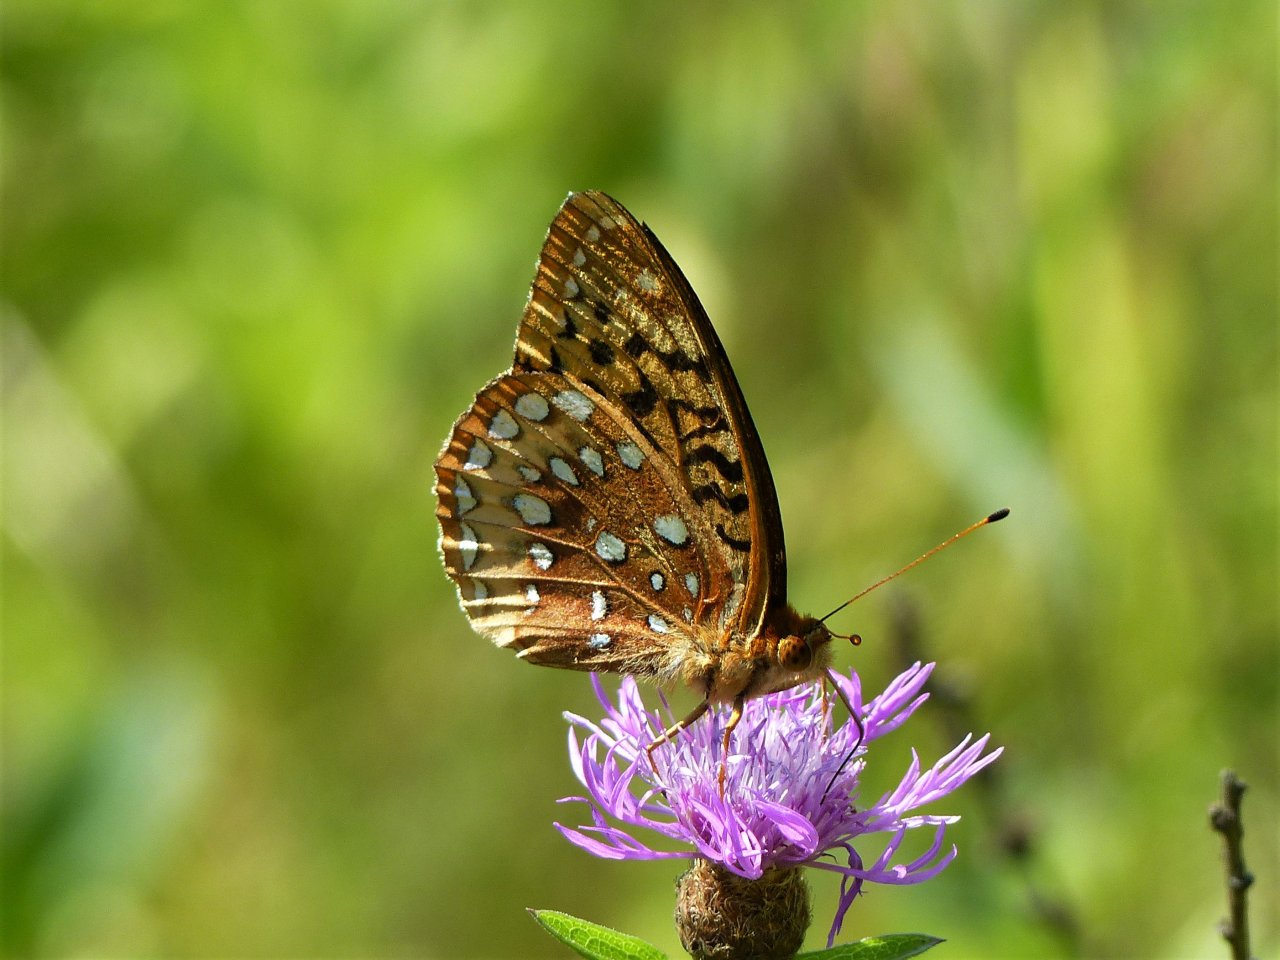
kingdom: Animalia
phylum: Arthropoda
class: Insecta
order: Lepidoptera
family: Nymphalidae
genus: Speyeria
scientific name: Speyeria cybele
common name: Great Spangled Fritillary
